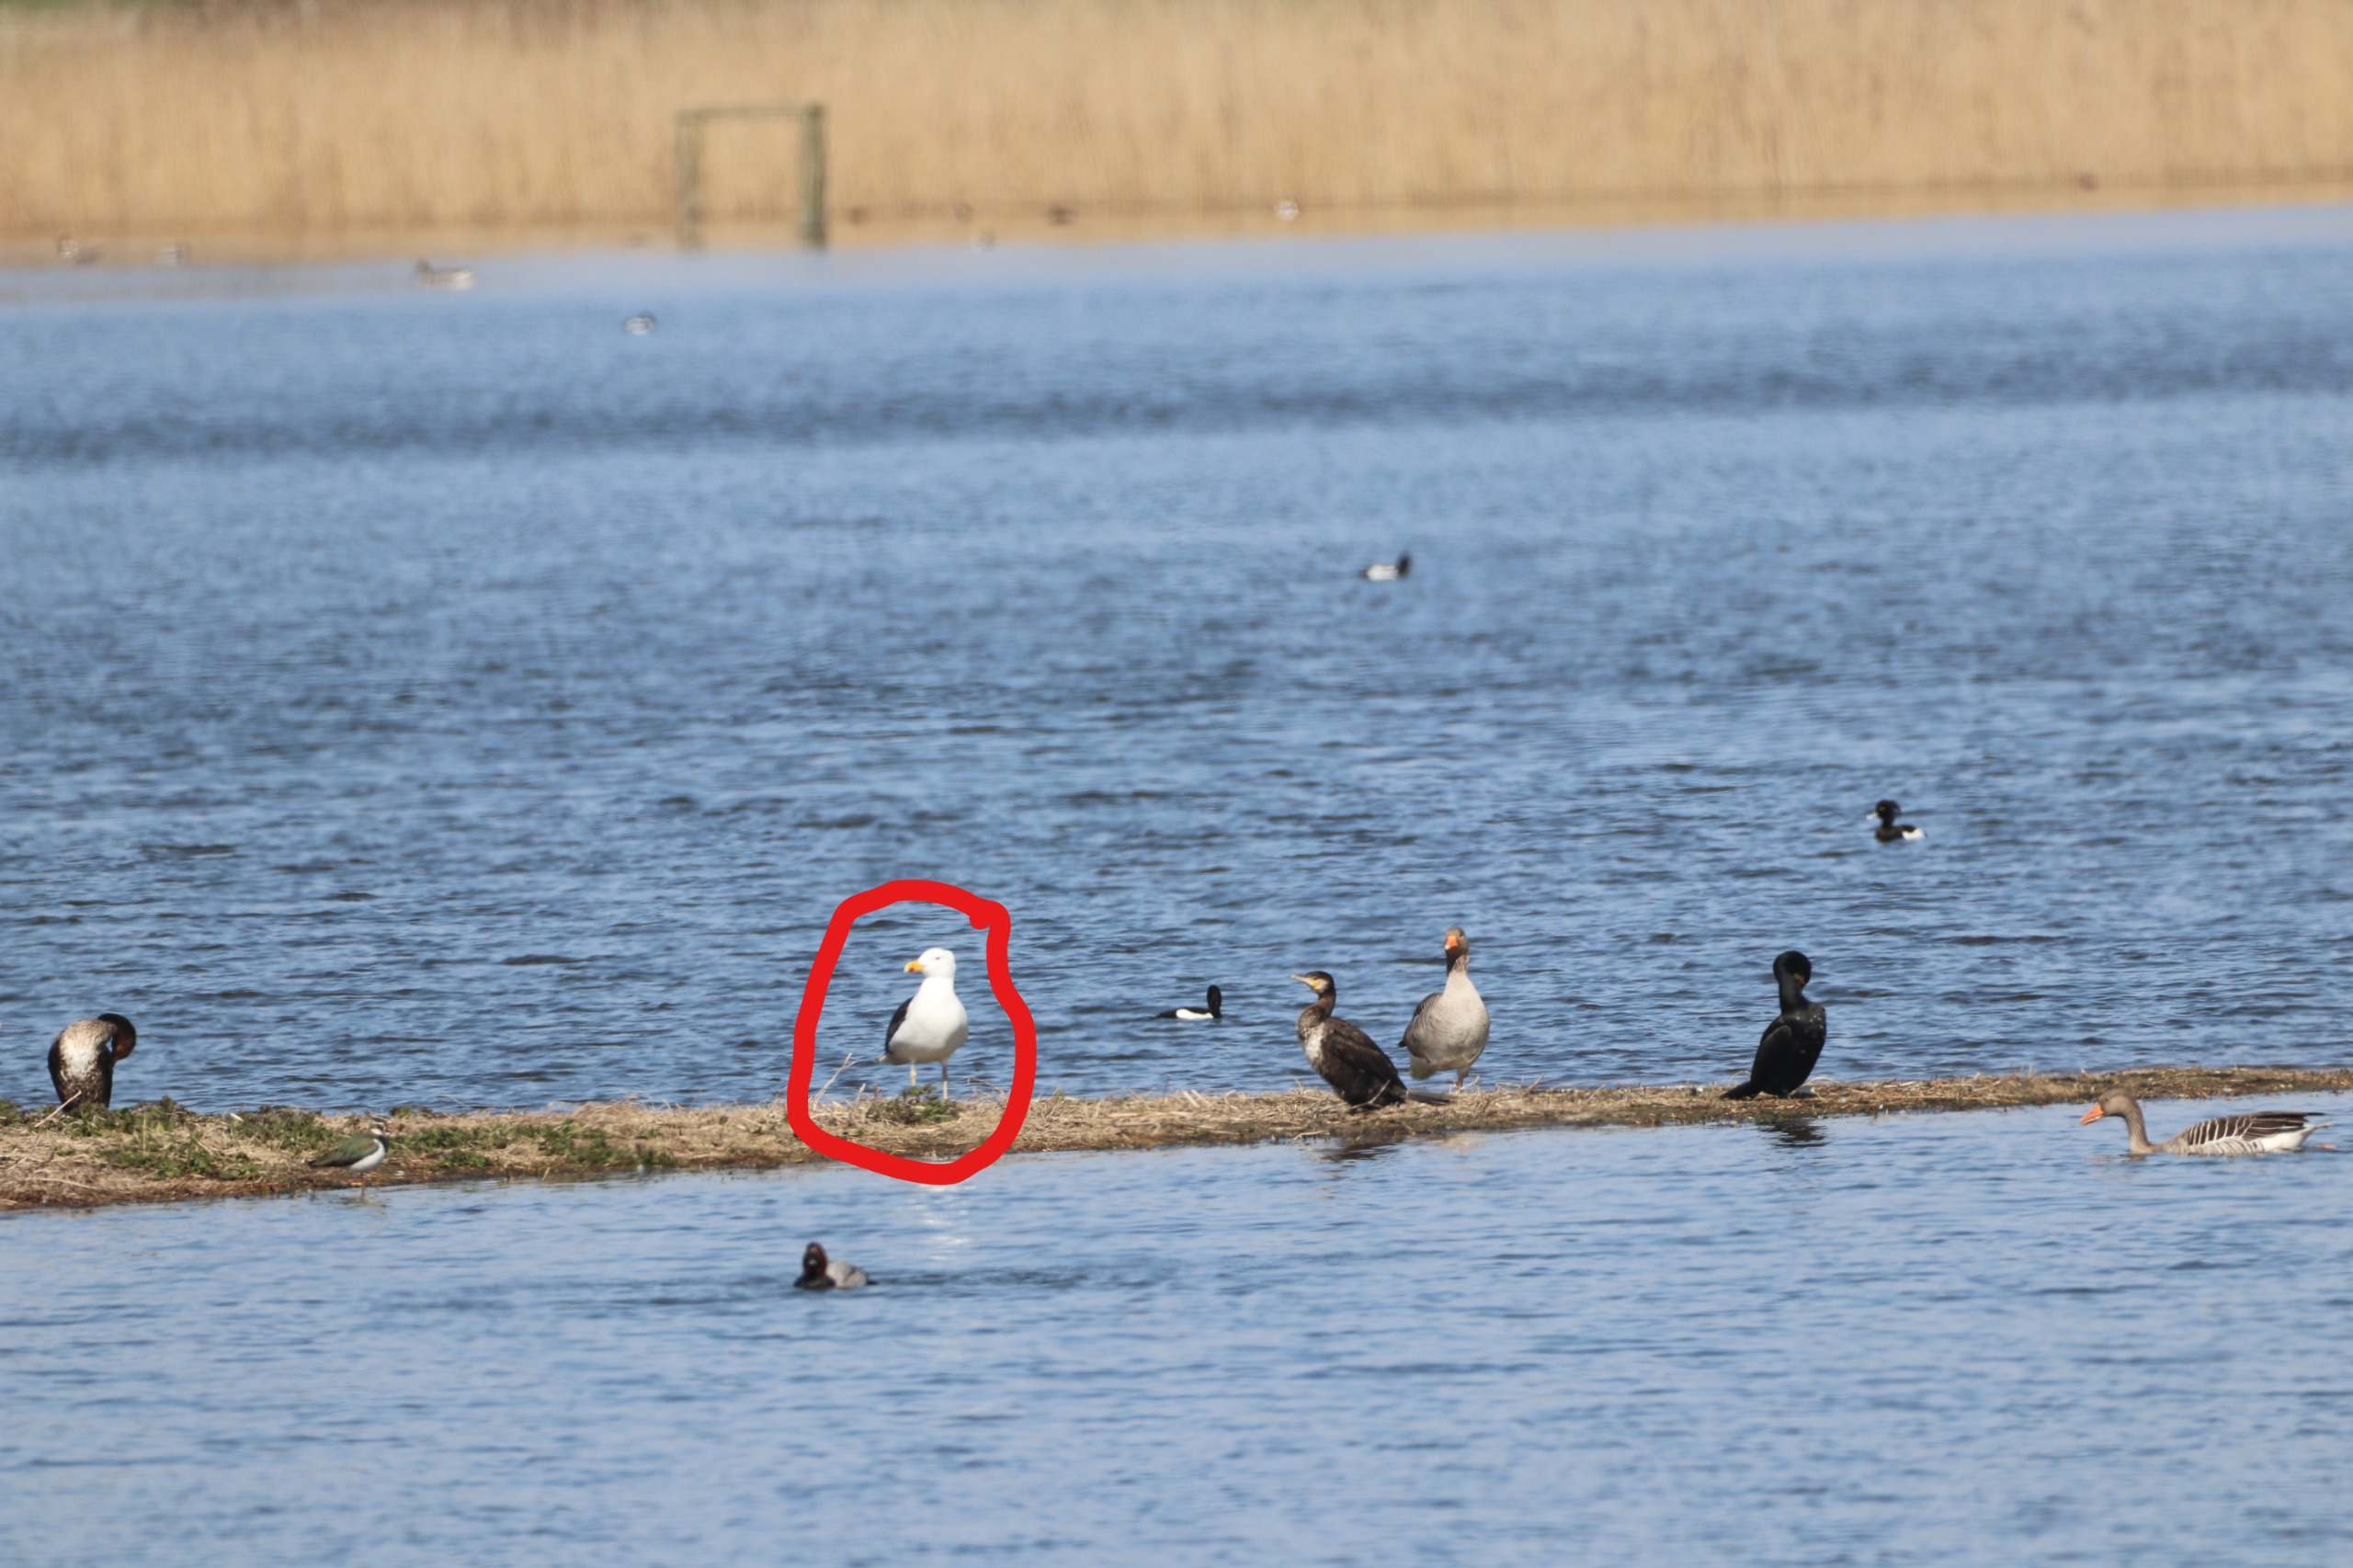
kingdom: Animalia
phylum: Chordata
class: Aves
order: Charadriiformes
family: Laridae
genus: Larus
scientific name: Larus marinus
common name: Svartbag
